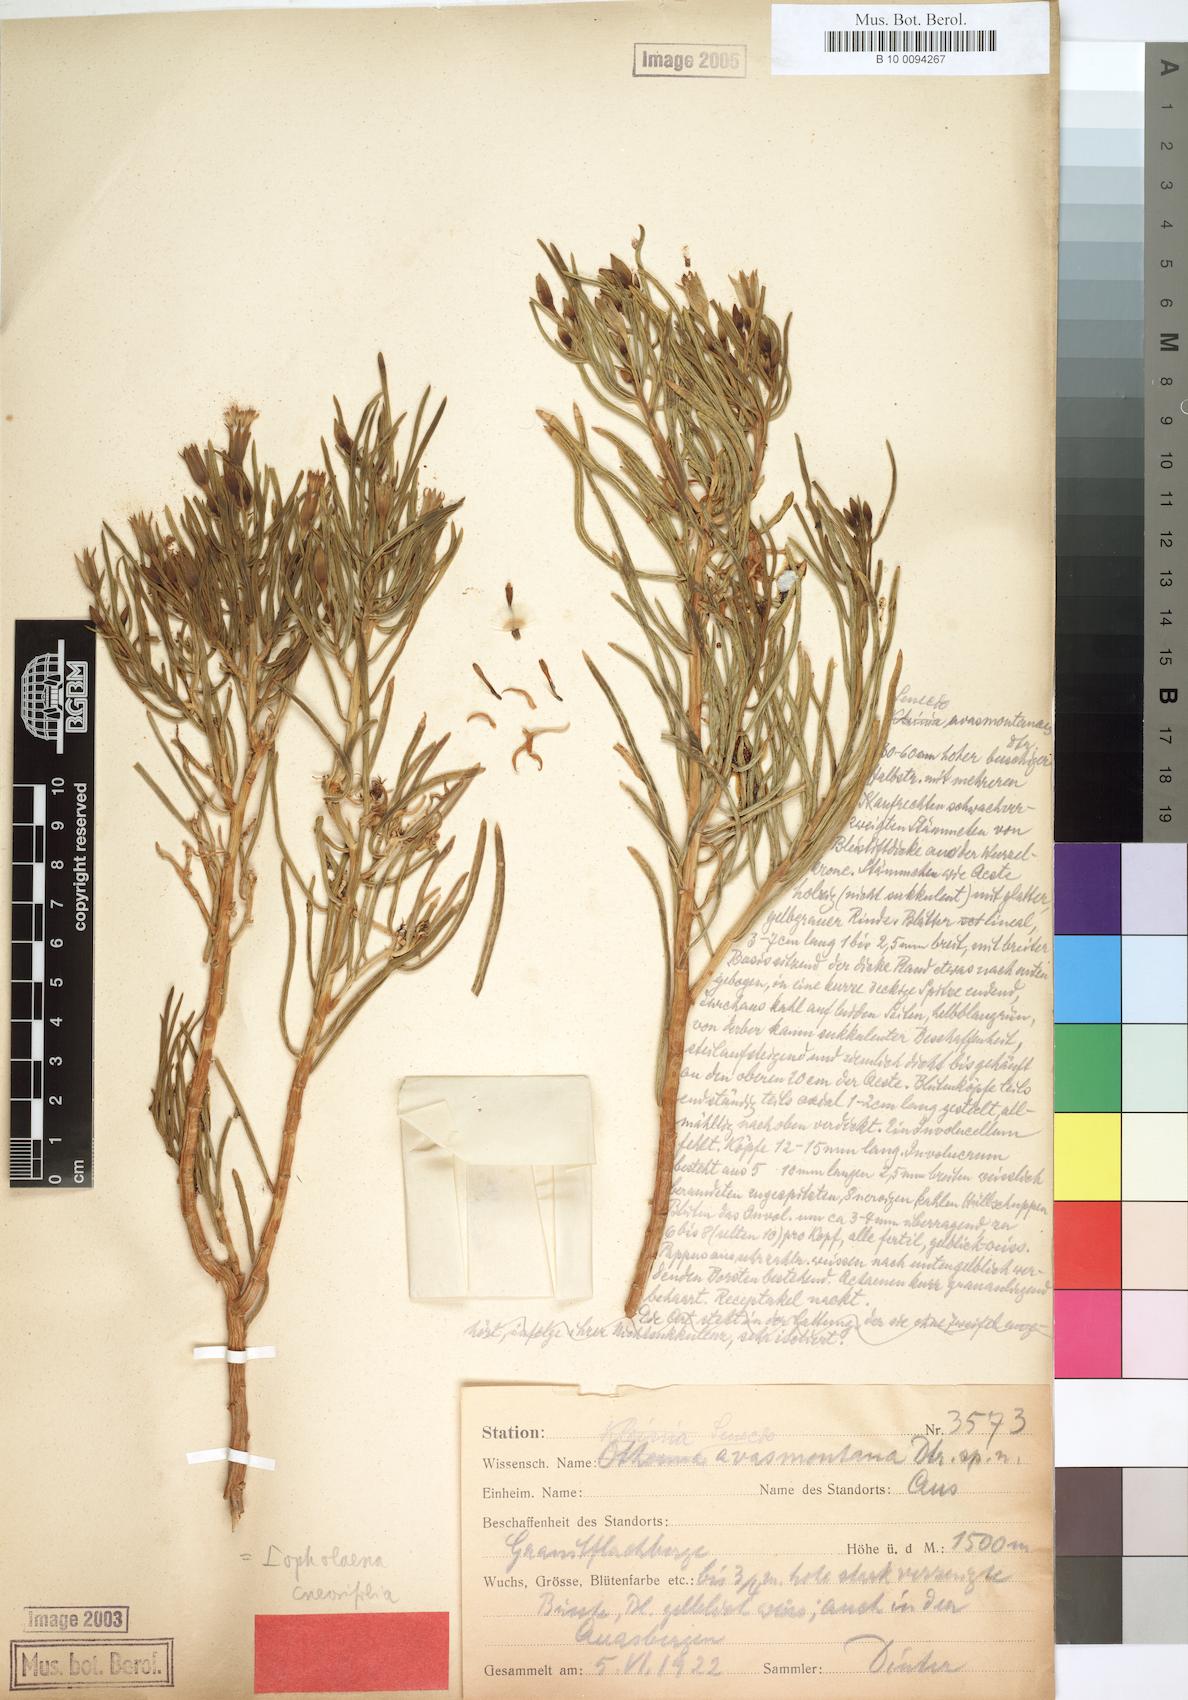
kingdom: Plantae
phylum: Tracheophyta
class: Magnoliopsida
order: Asterales
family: Asteraceae
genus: Lopholaena
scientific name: Lopholaena cneorifolia
